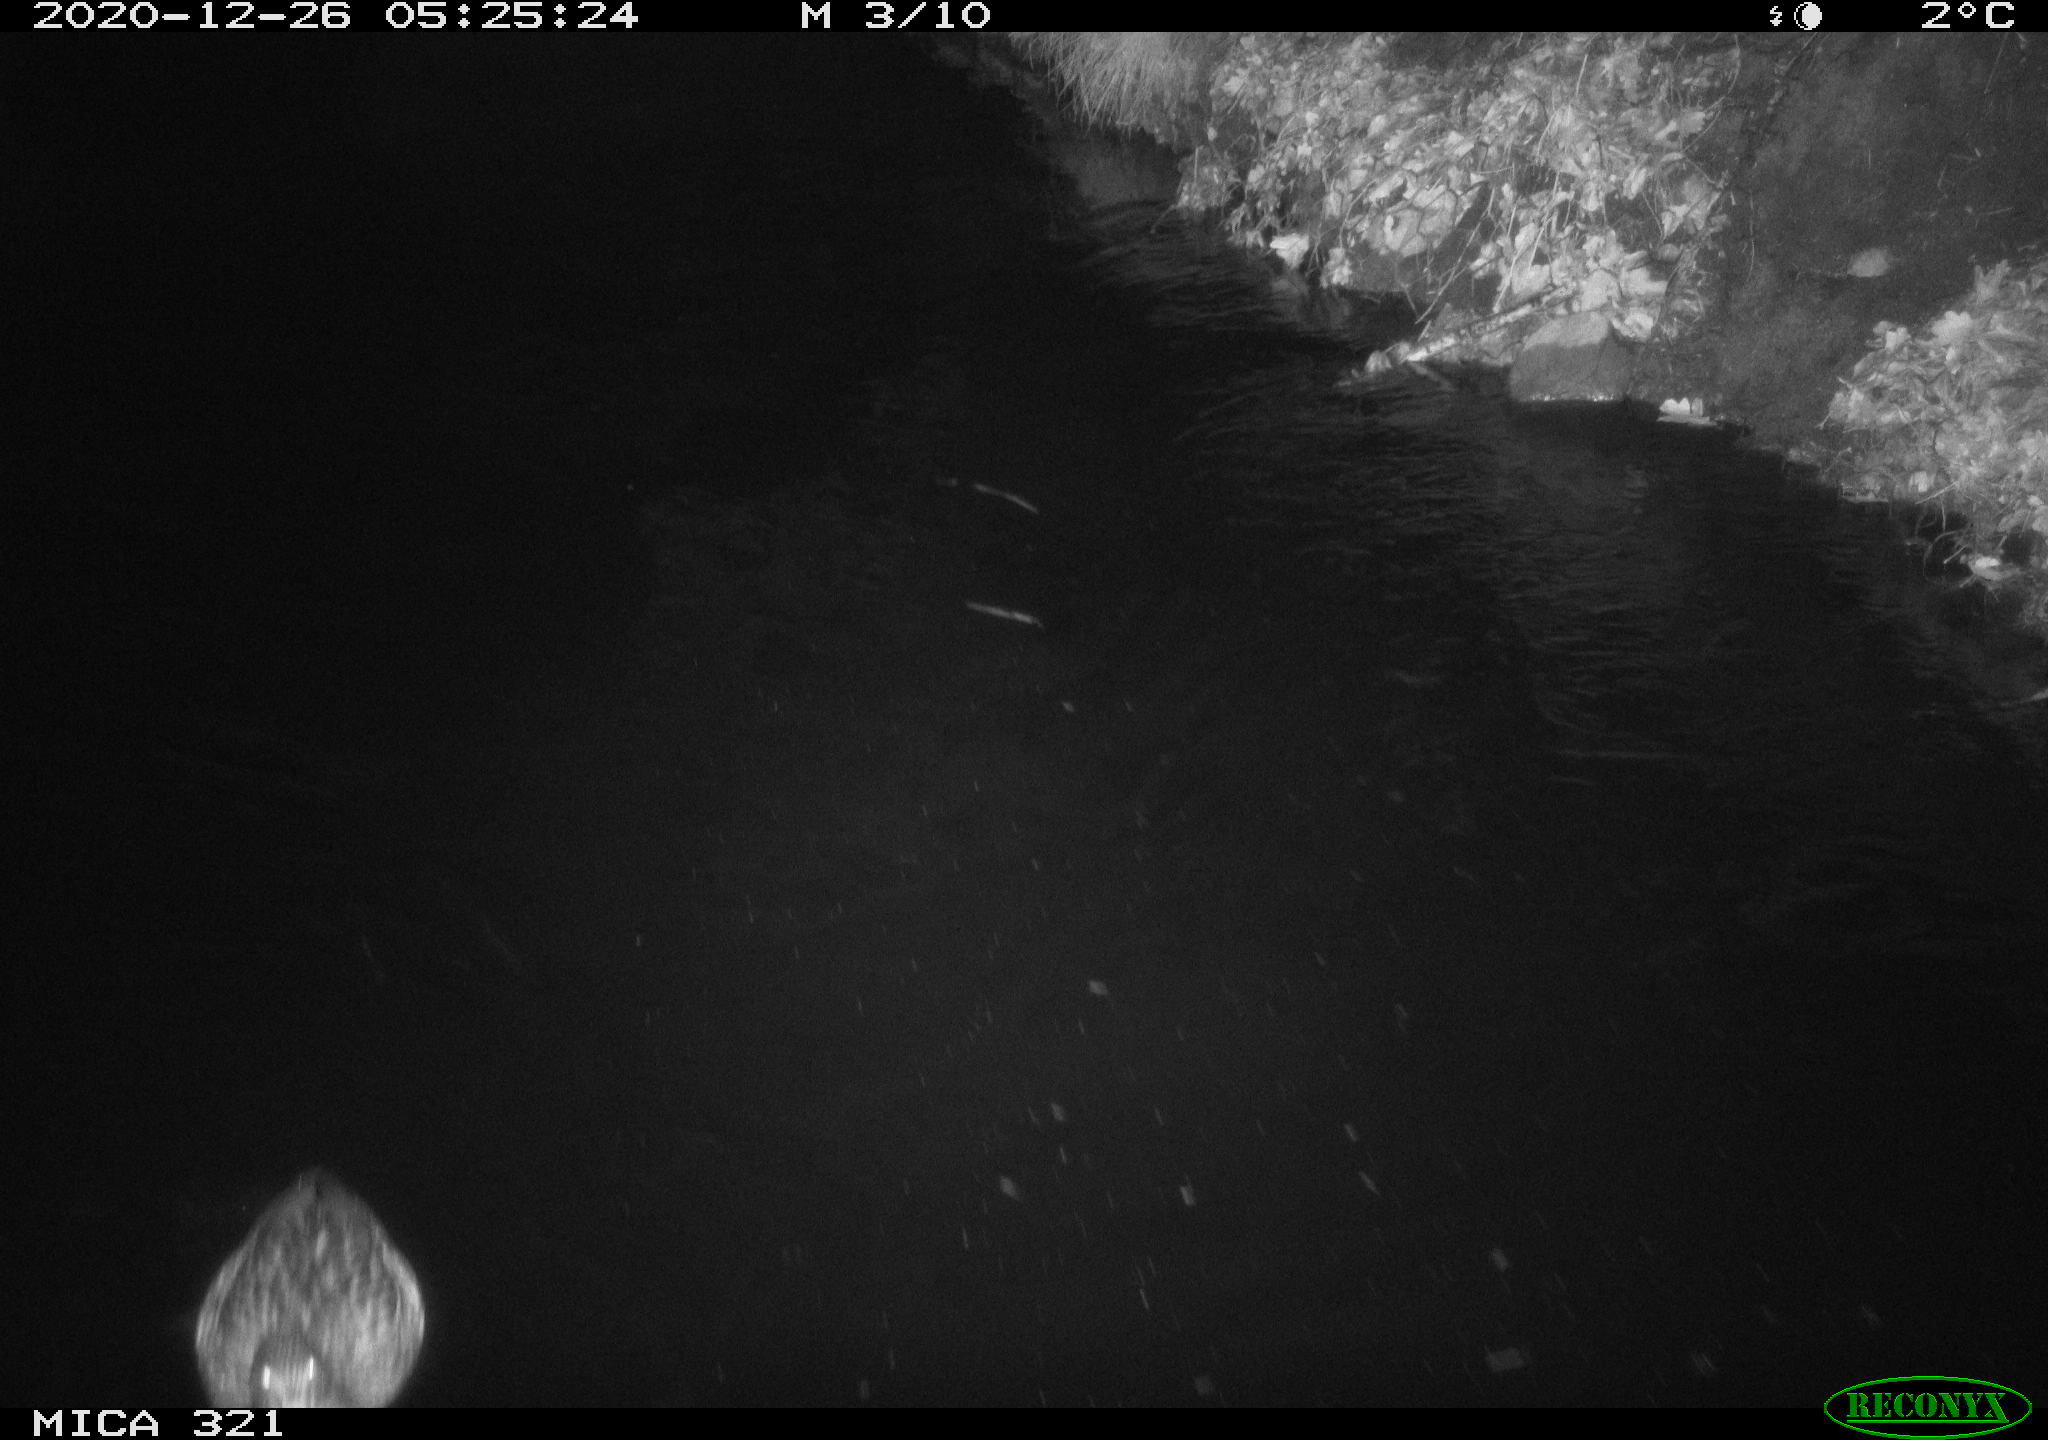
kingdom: Animalia
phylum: Chordata
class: Aves
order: Anseriformes
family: Anatidae
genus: Anas
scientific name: Anas platyrhynchos
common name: Mallard
